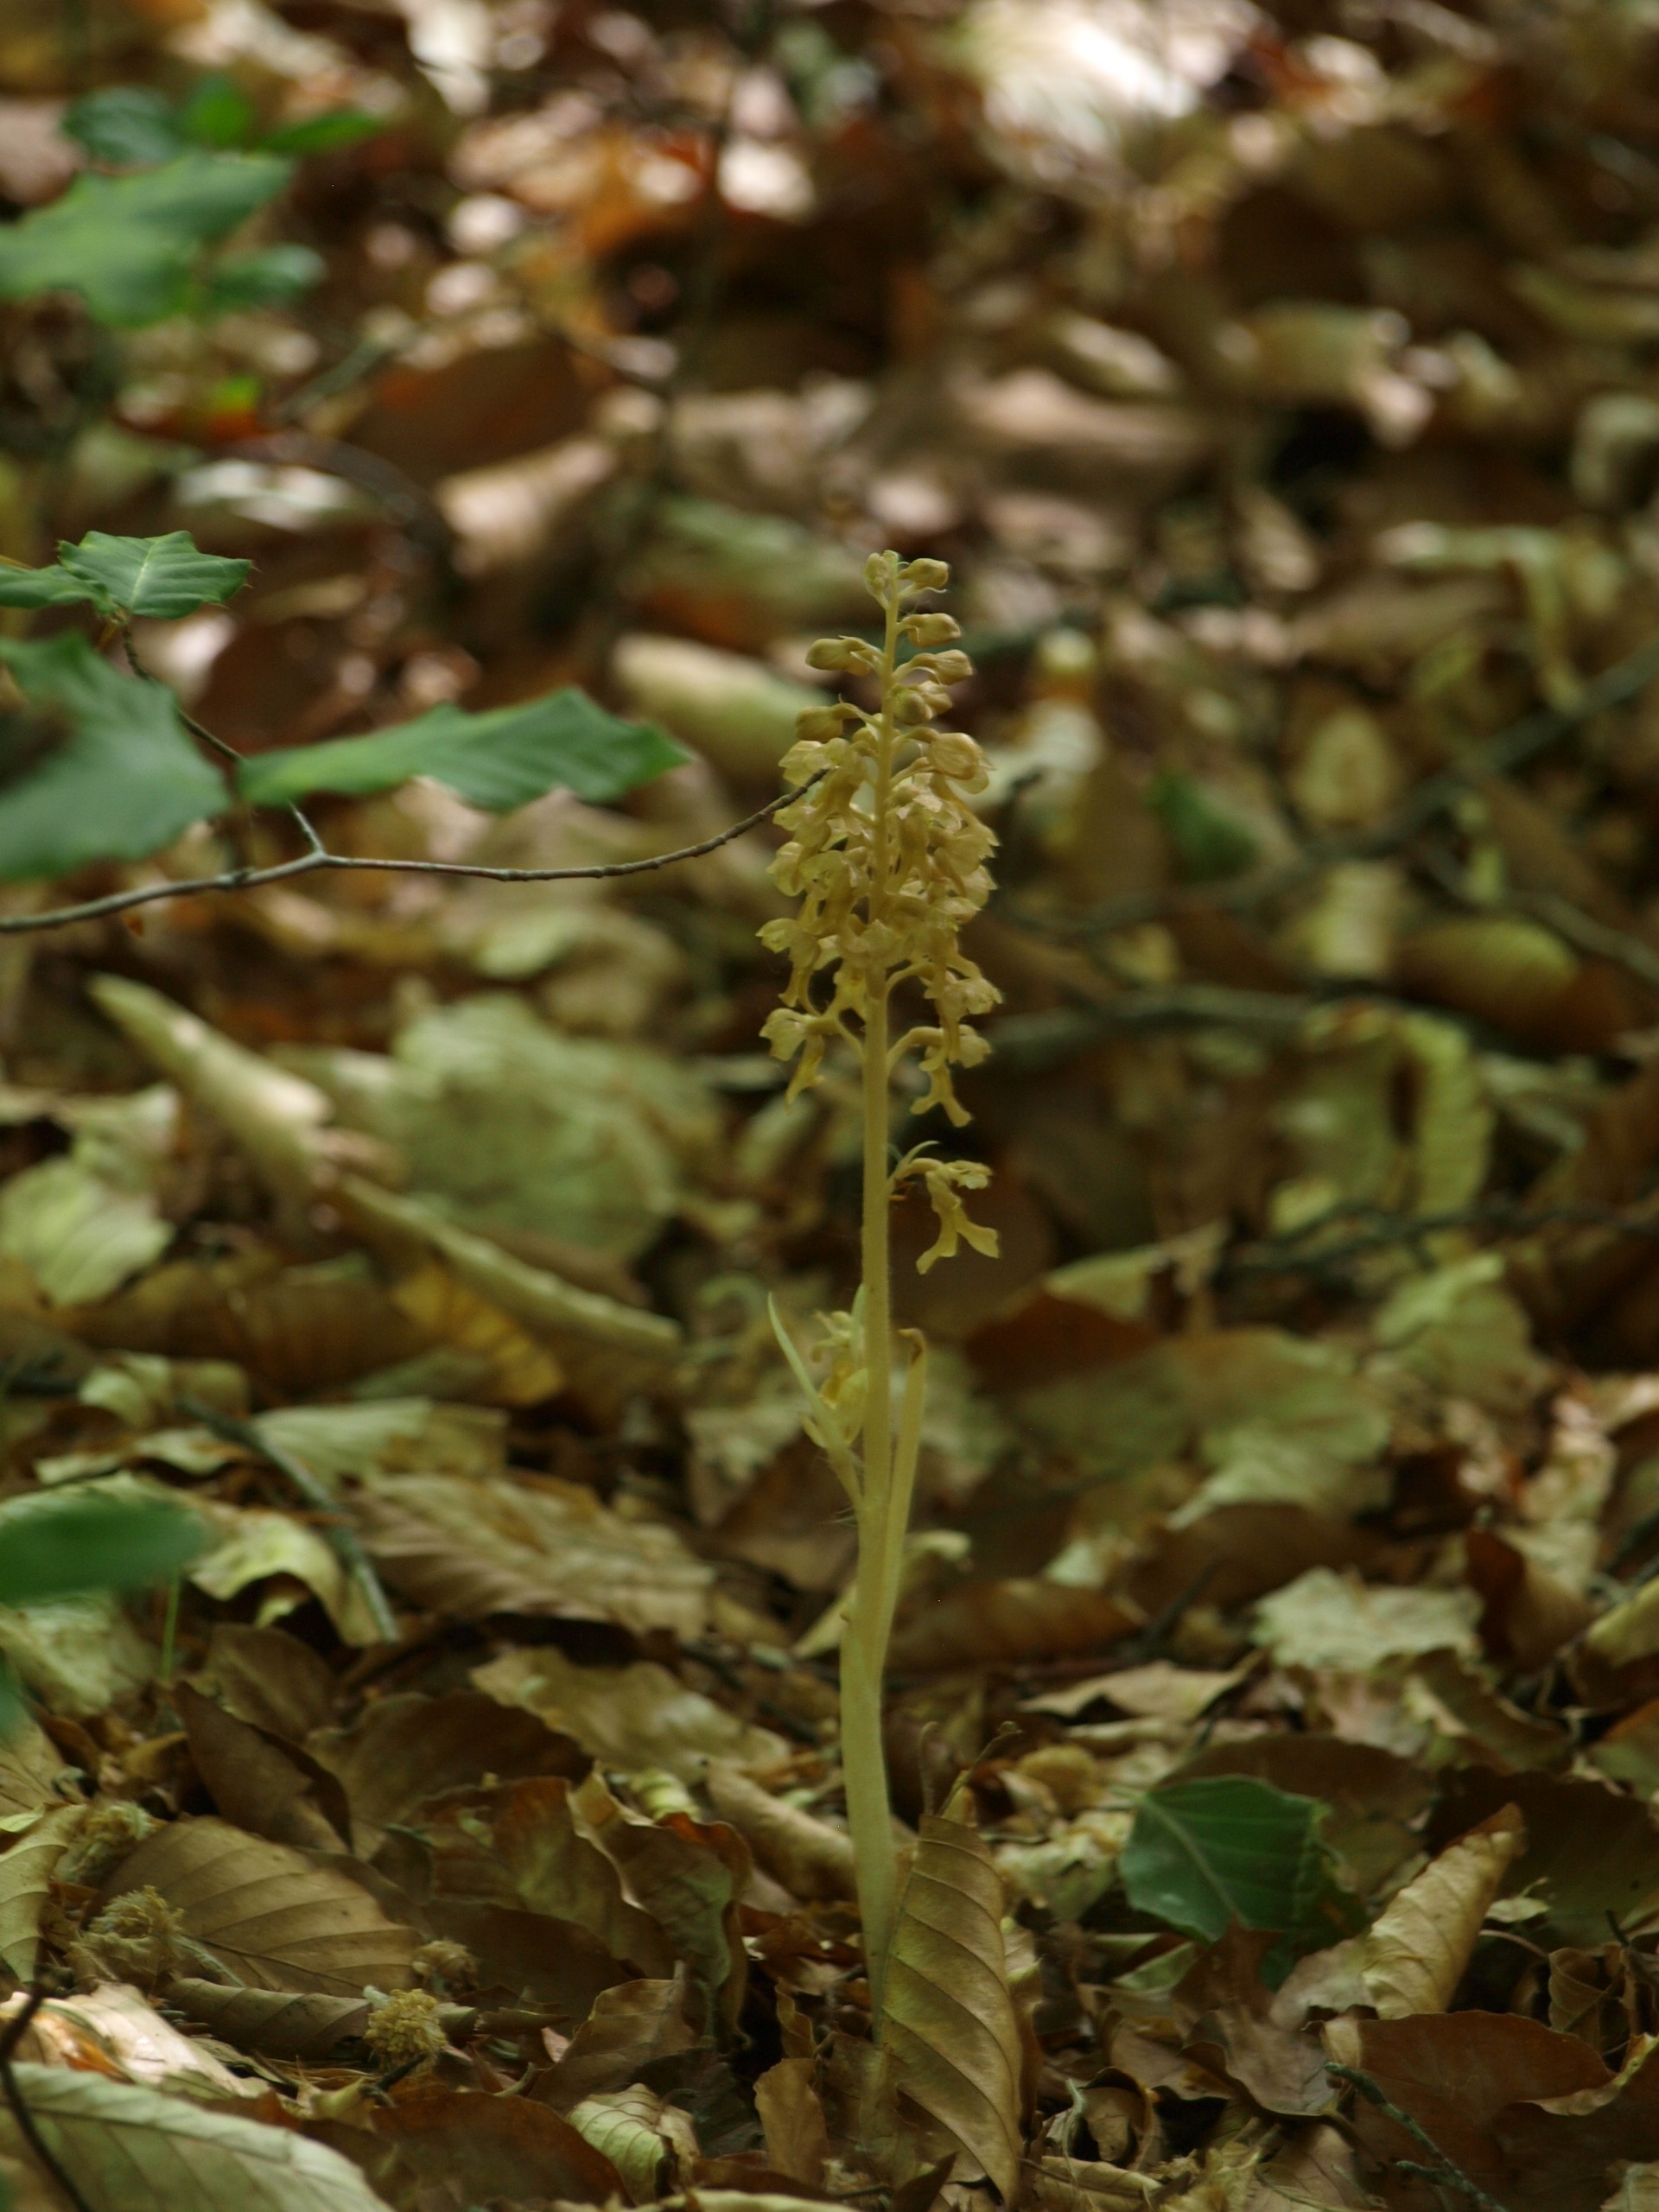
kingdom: Plantae
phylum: Tracheophyta
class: Liliopsida
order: Asparagales
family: Orchidaceae
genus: Neottia
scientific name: Neottia nidus-avis
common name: Rederod
